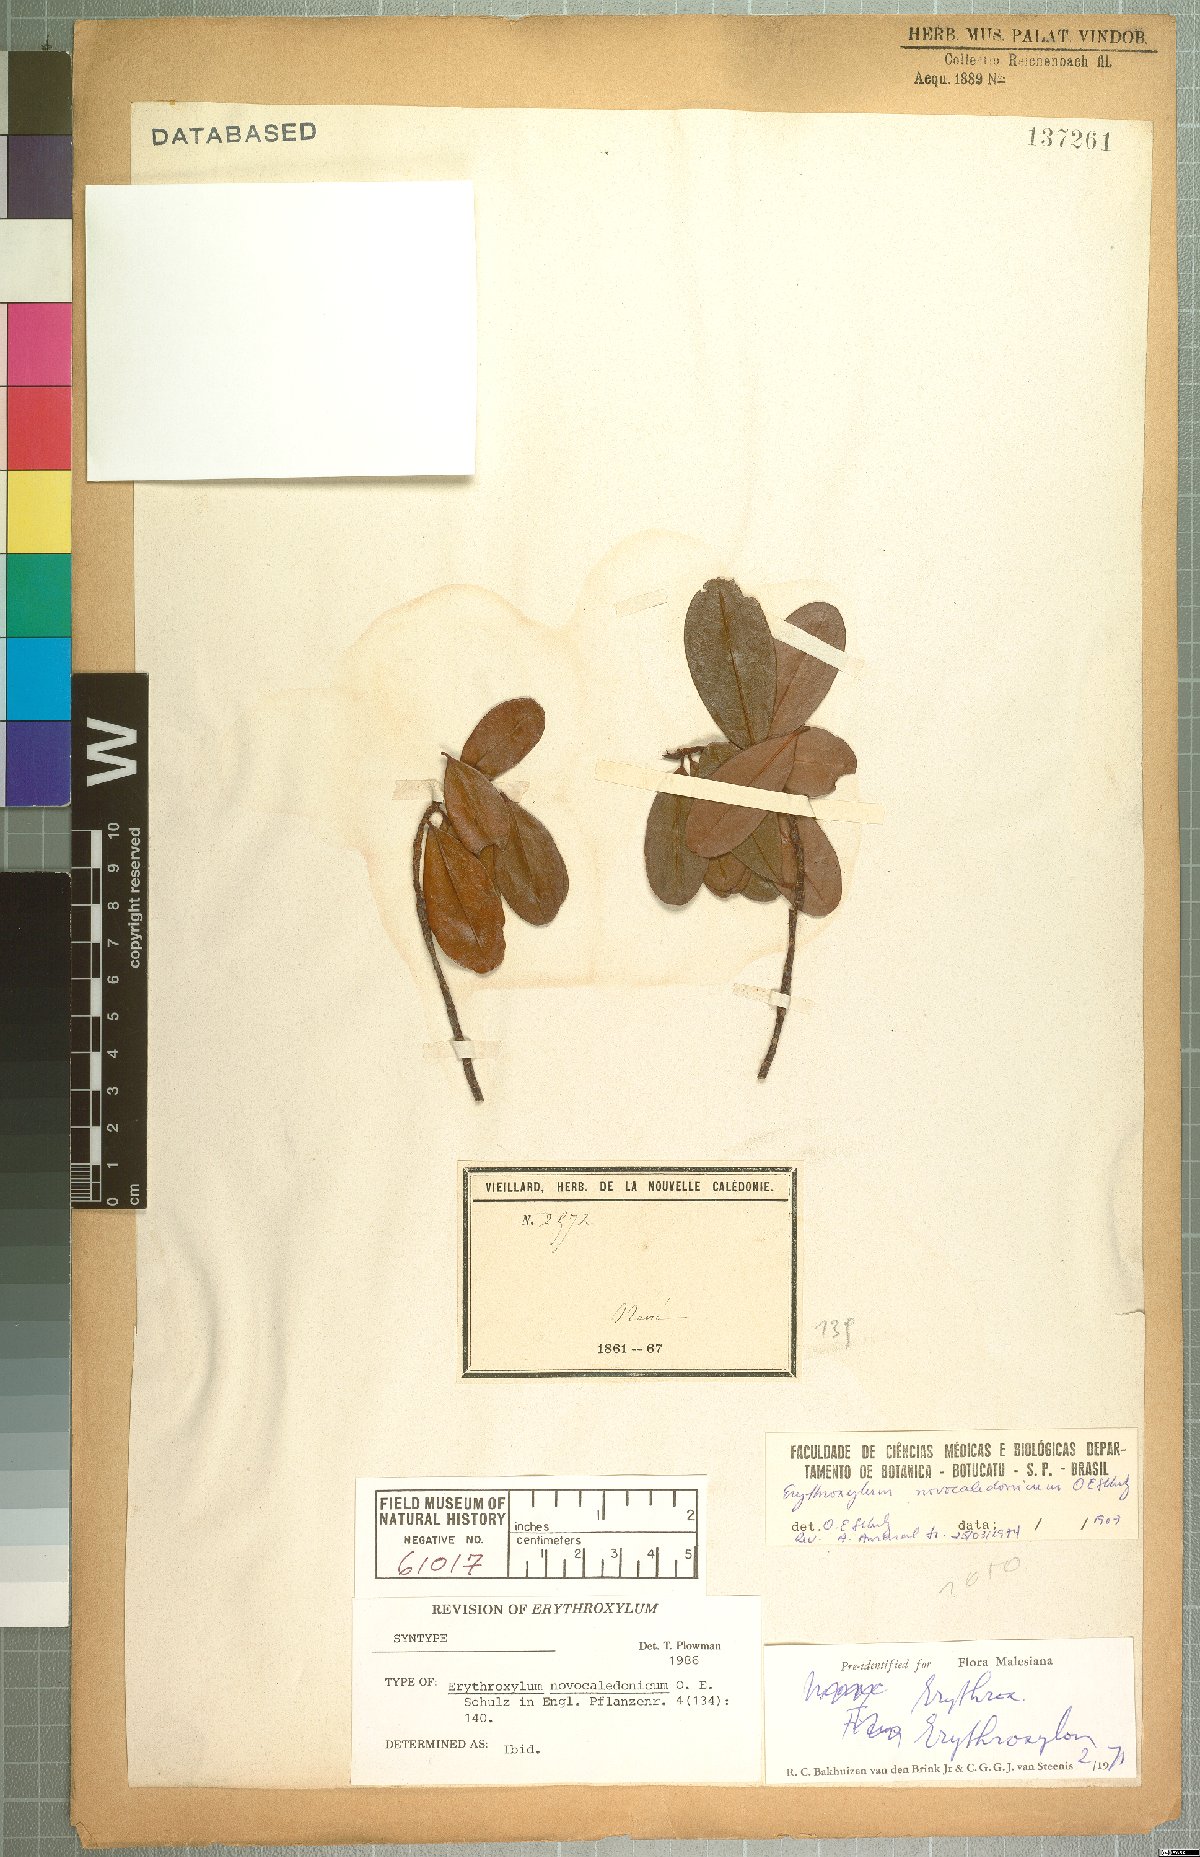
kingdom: Plantae
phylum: Tracheophyta
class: Magnoliopsida
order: Malpighiales
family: Erythroxylaceae
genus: Erythroxylum
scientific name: Erythroxylum novocaledonicum
